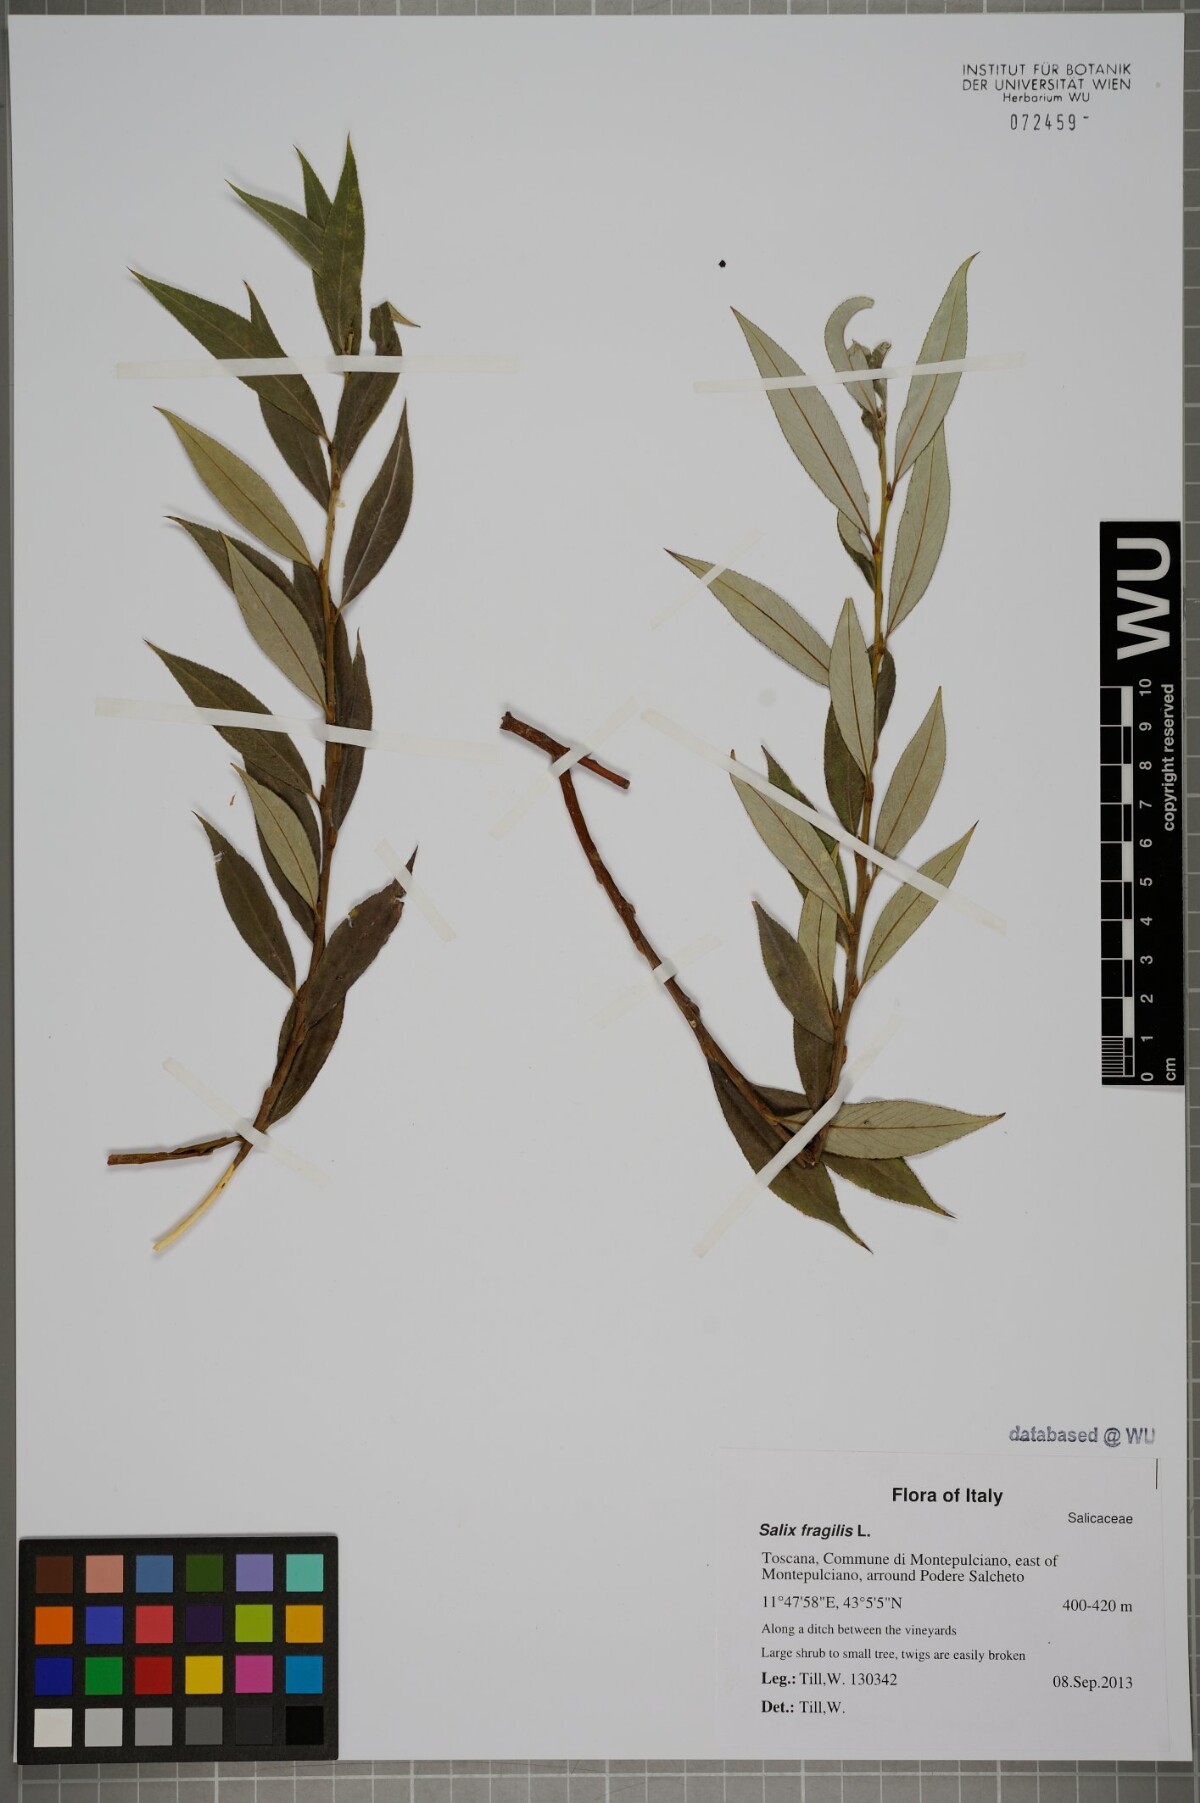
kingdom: Plantae
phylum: Tracheophyta
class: Magnoliopsida
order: Malpighiales
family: Salicaceae
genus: Salix
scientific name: Salix fragilis
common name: Crack willow
